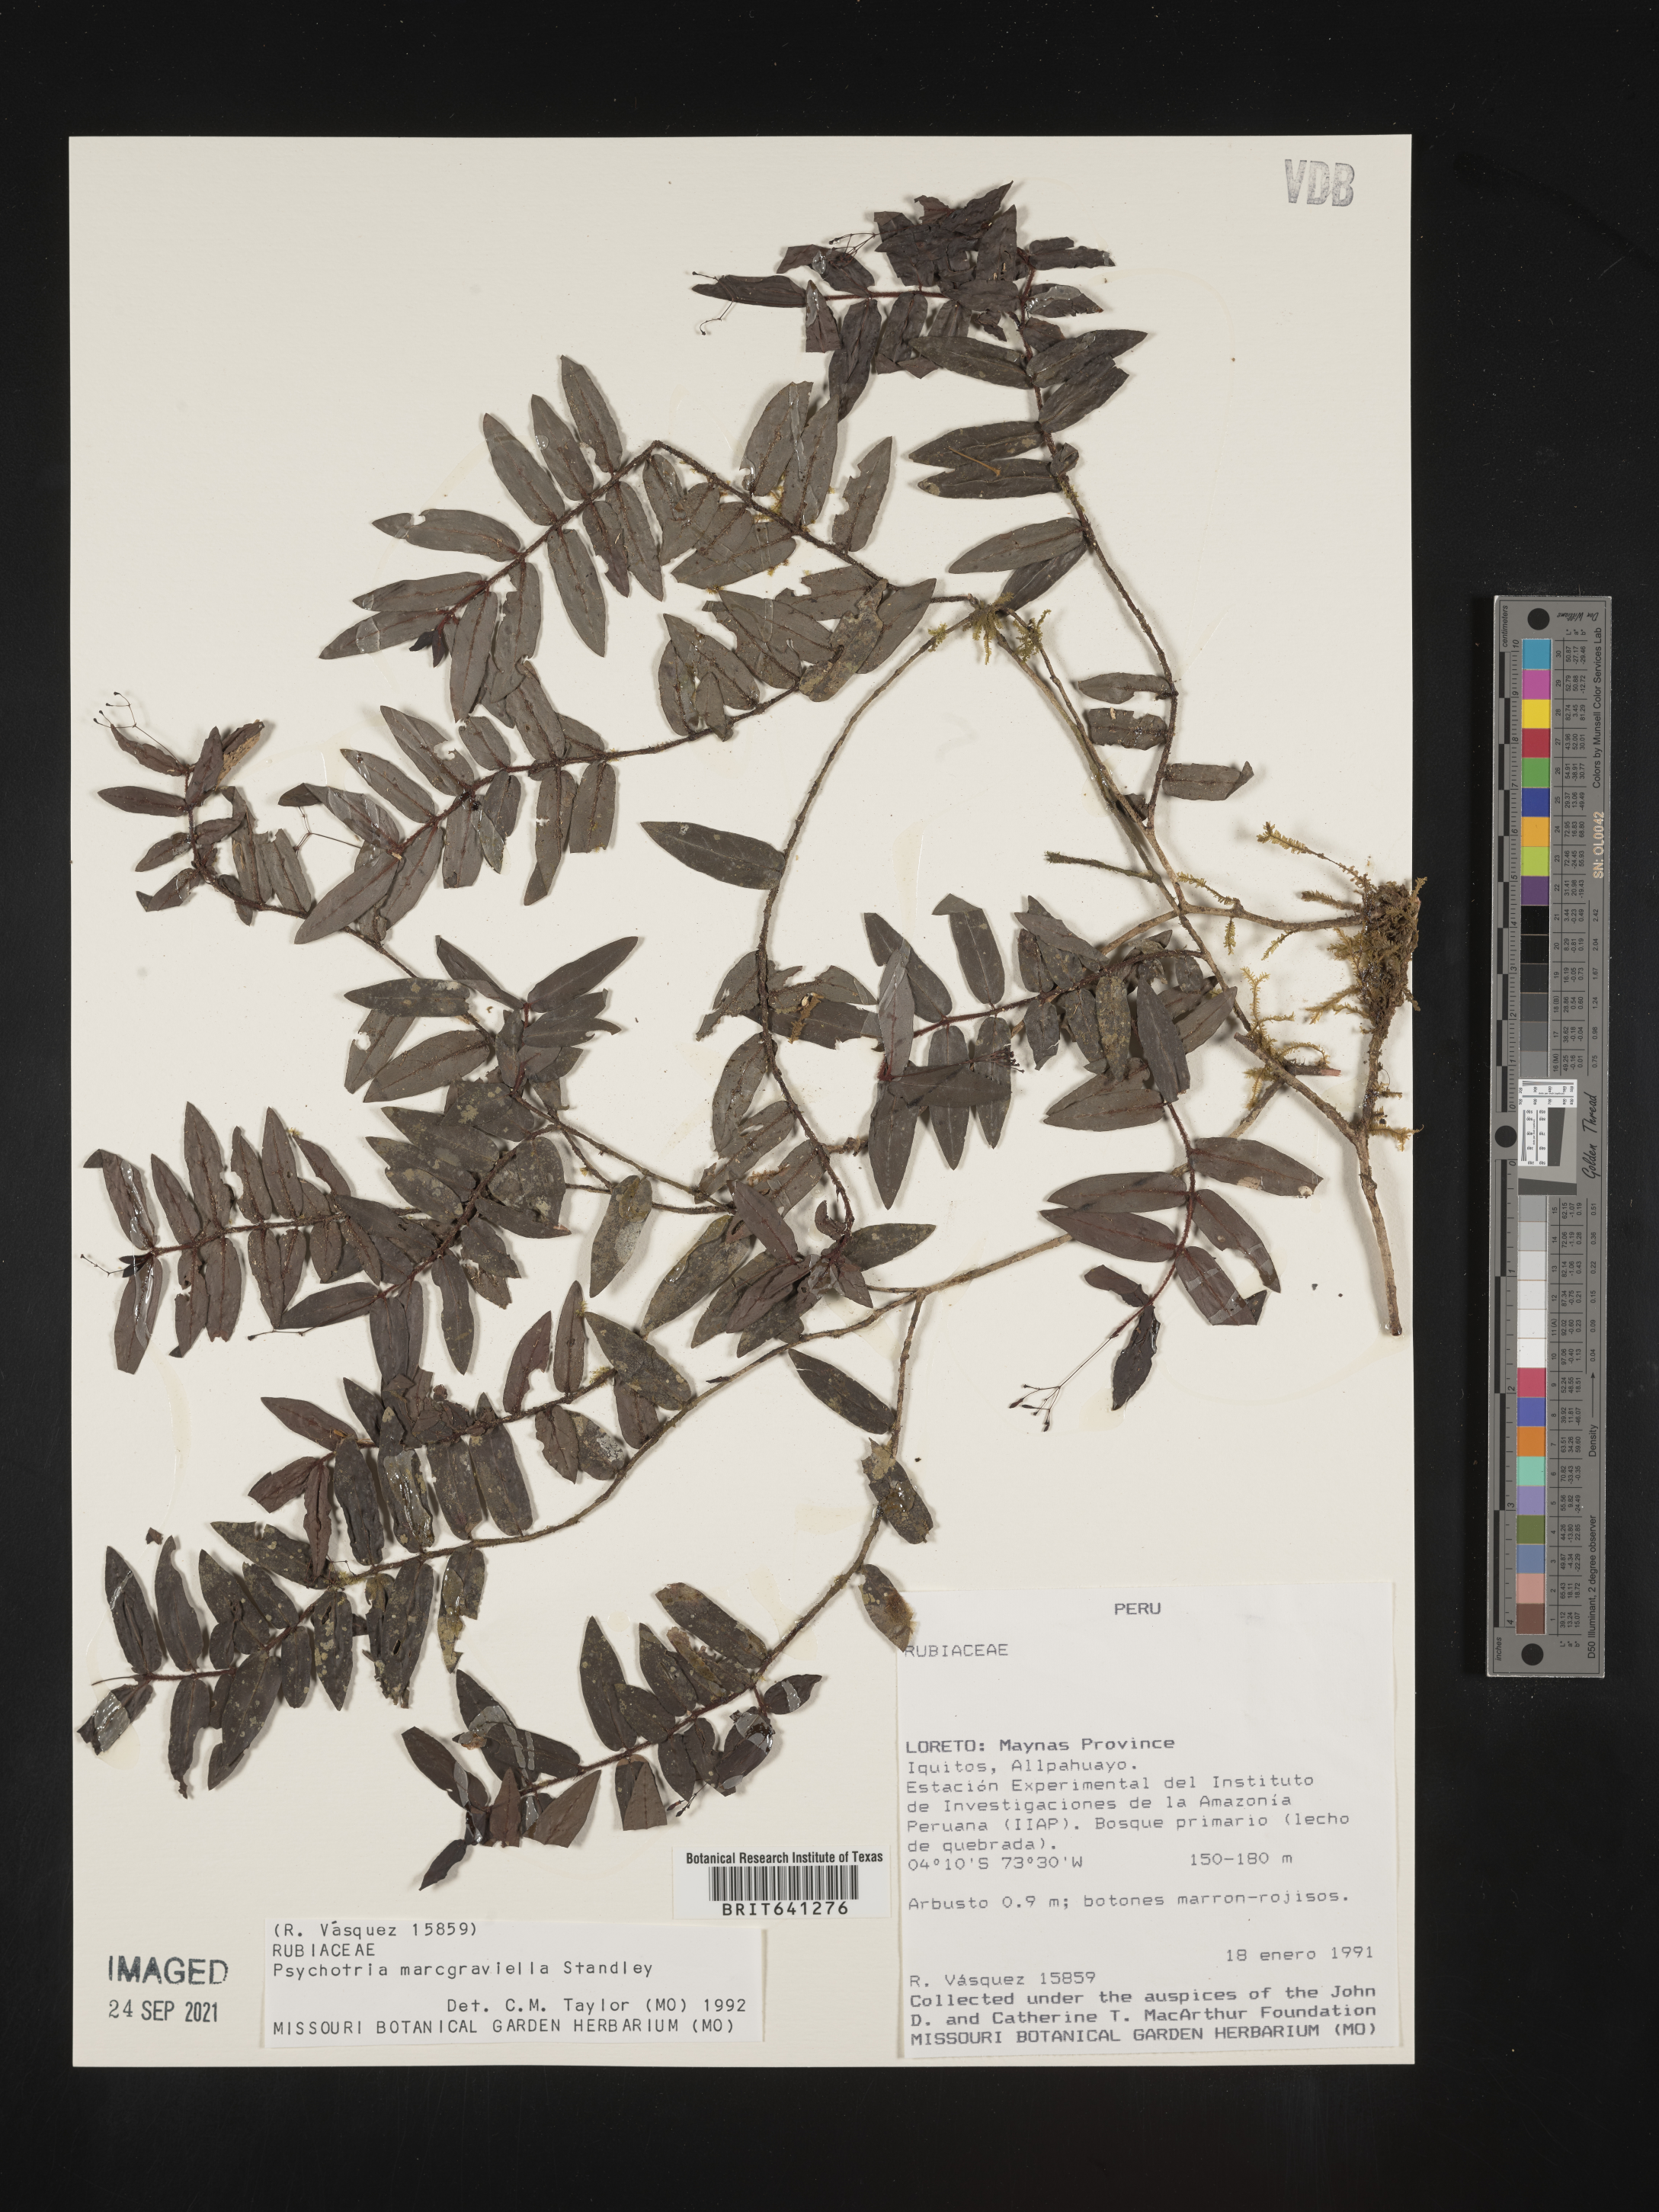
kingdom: Plantae
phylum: Tracheophyta
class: Magnoliopsida
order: Gentianales
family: Rubiaceae
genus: Psychotria
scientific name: Psychotria
